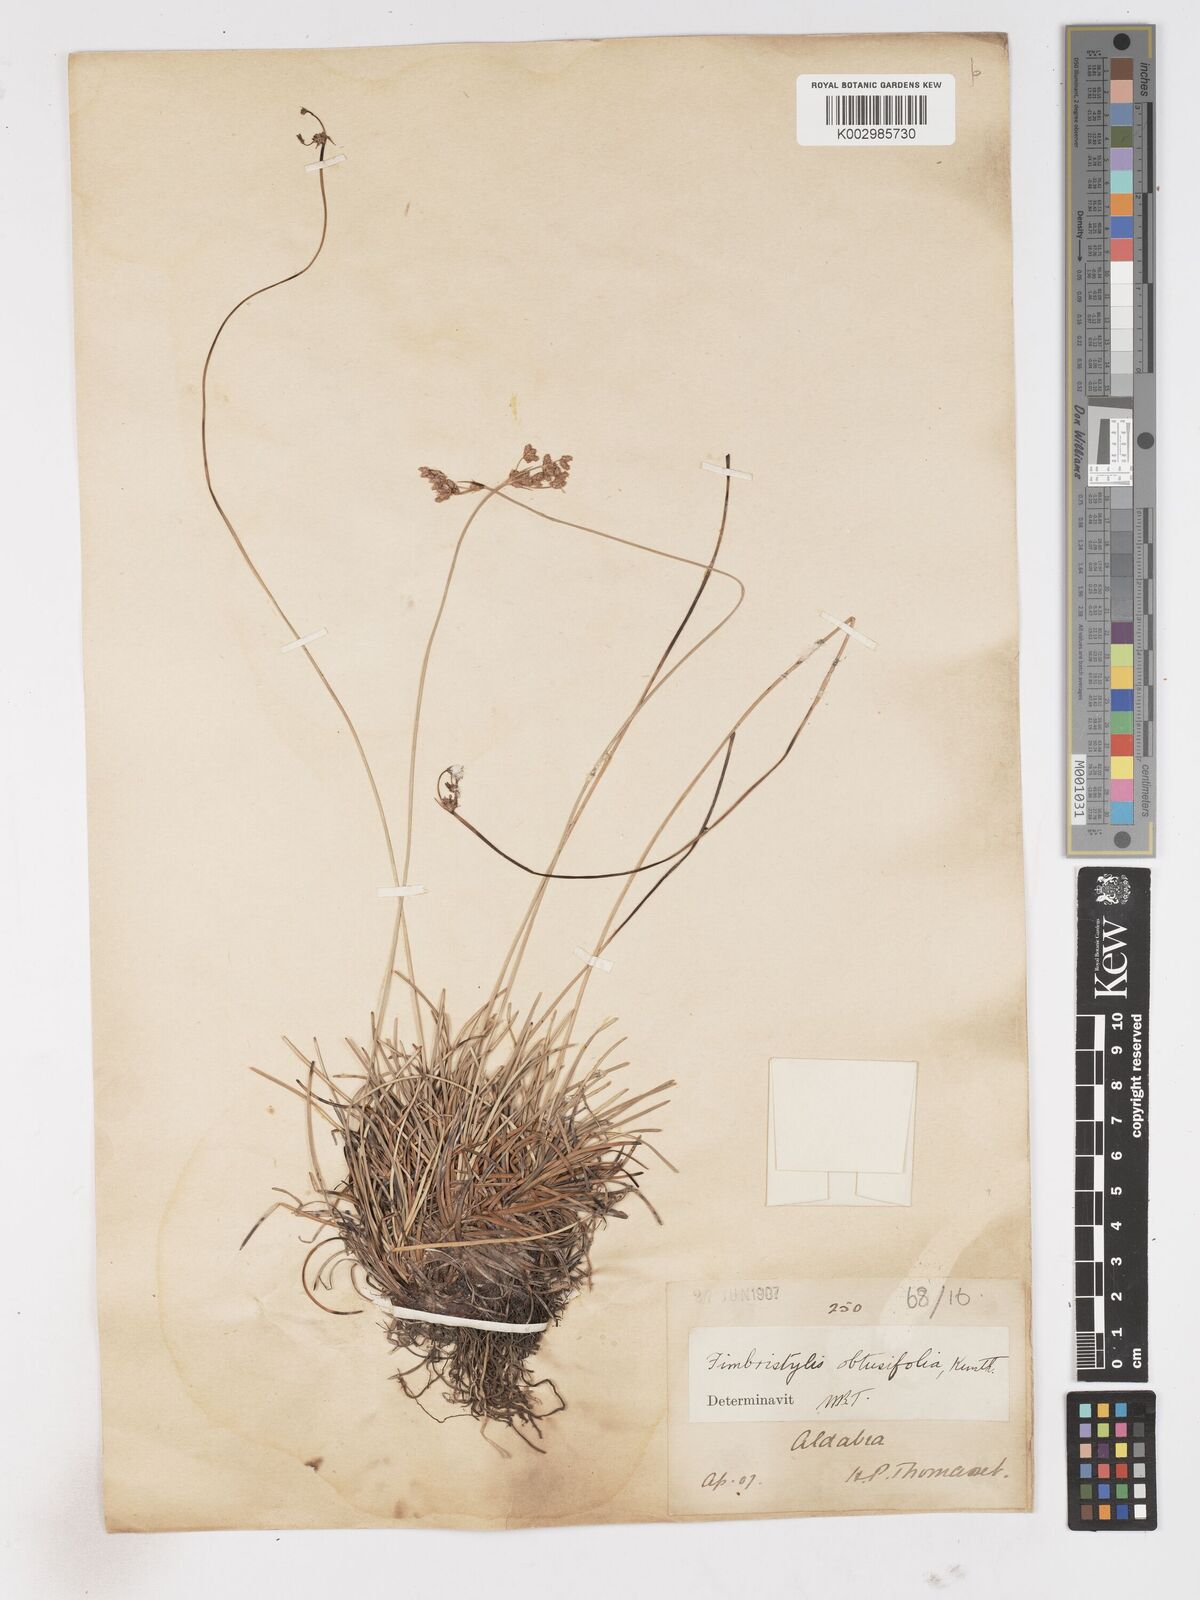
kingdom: Plantae
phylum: Tracheophyta
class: Liliopsida
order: Poales
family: Cyperaceae
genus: Fimbristylis
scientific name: Fimbristylis cymosa
